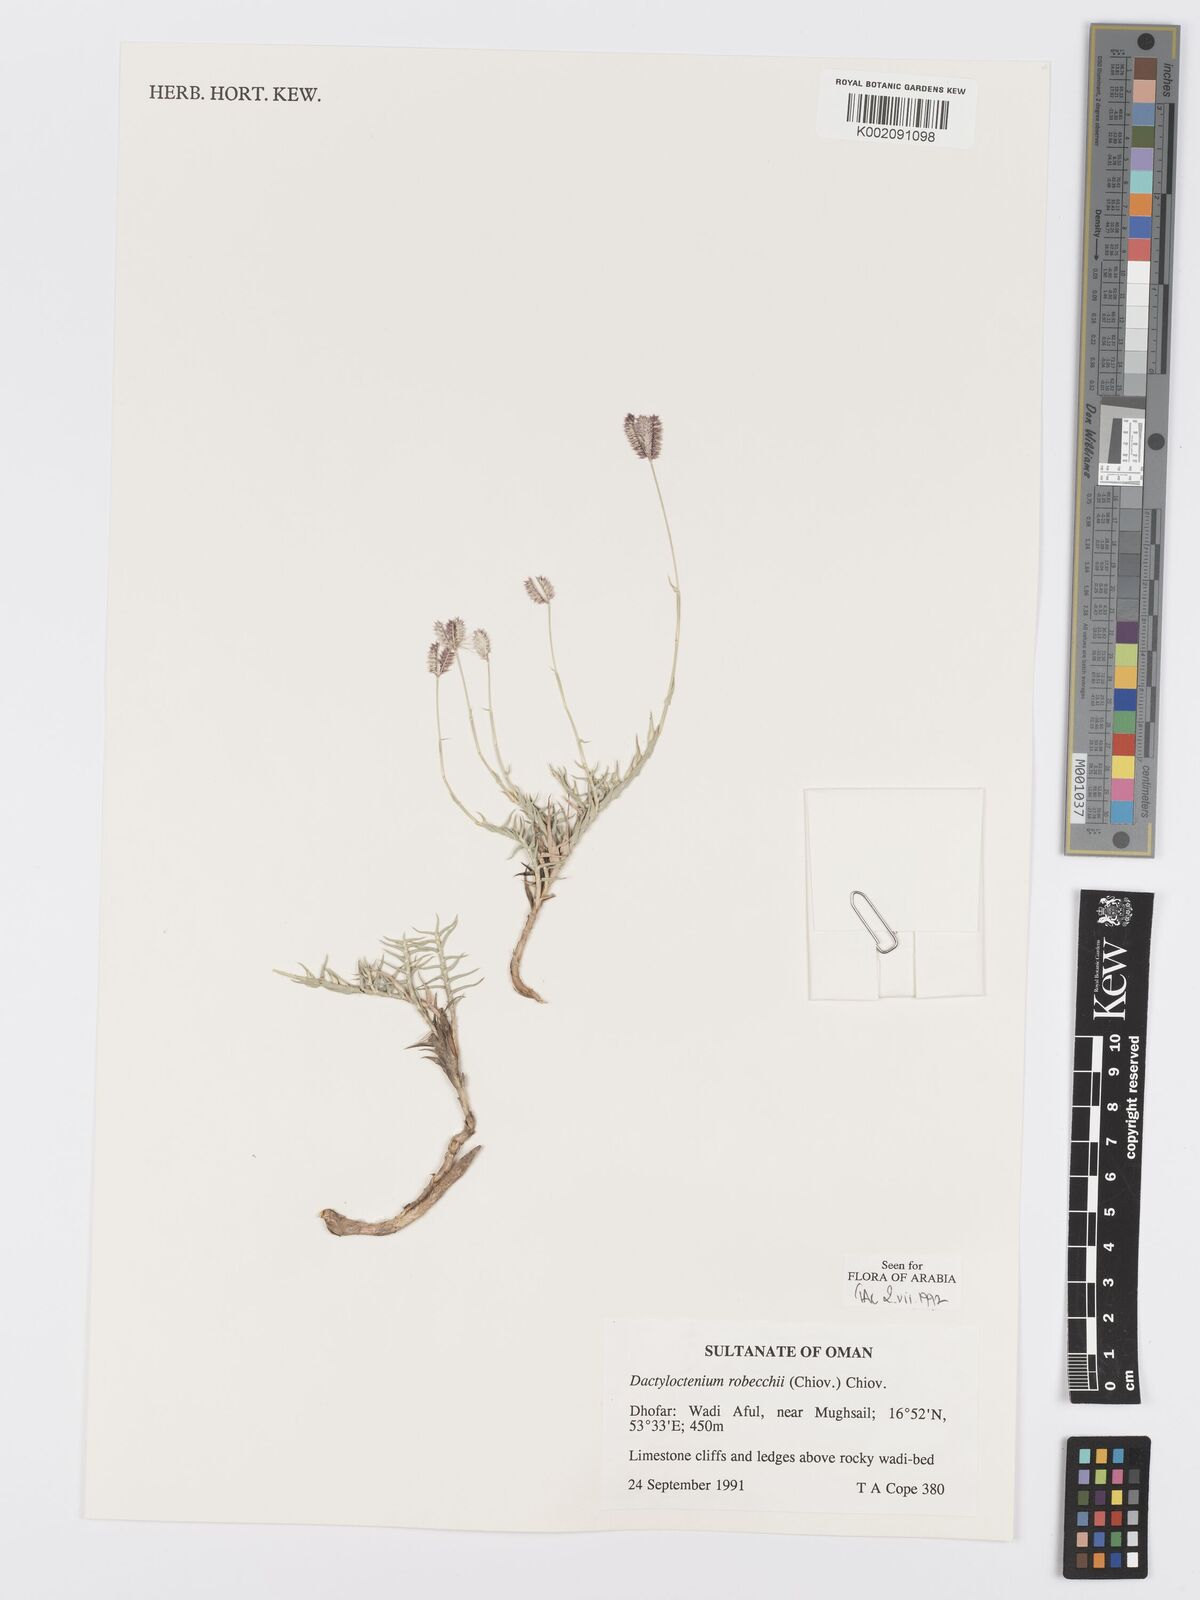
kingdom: Plantae
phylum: Tracheophyta
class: Liliopsida
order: Poales
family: Poaceae
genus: Dactyloctenium
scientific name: Dactyloctenium robecchii
